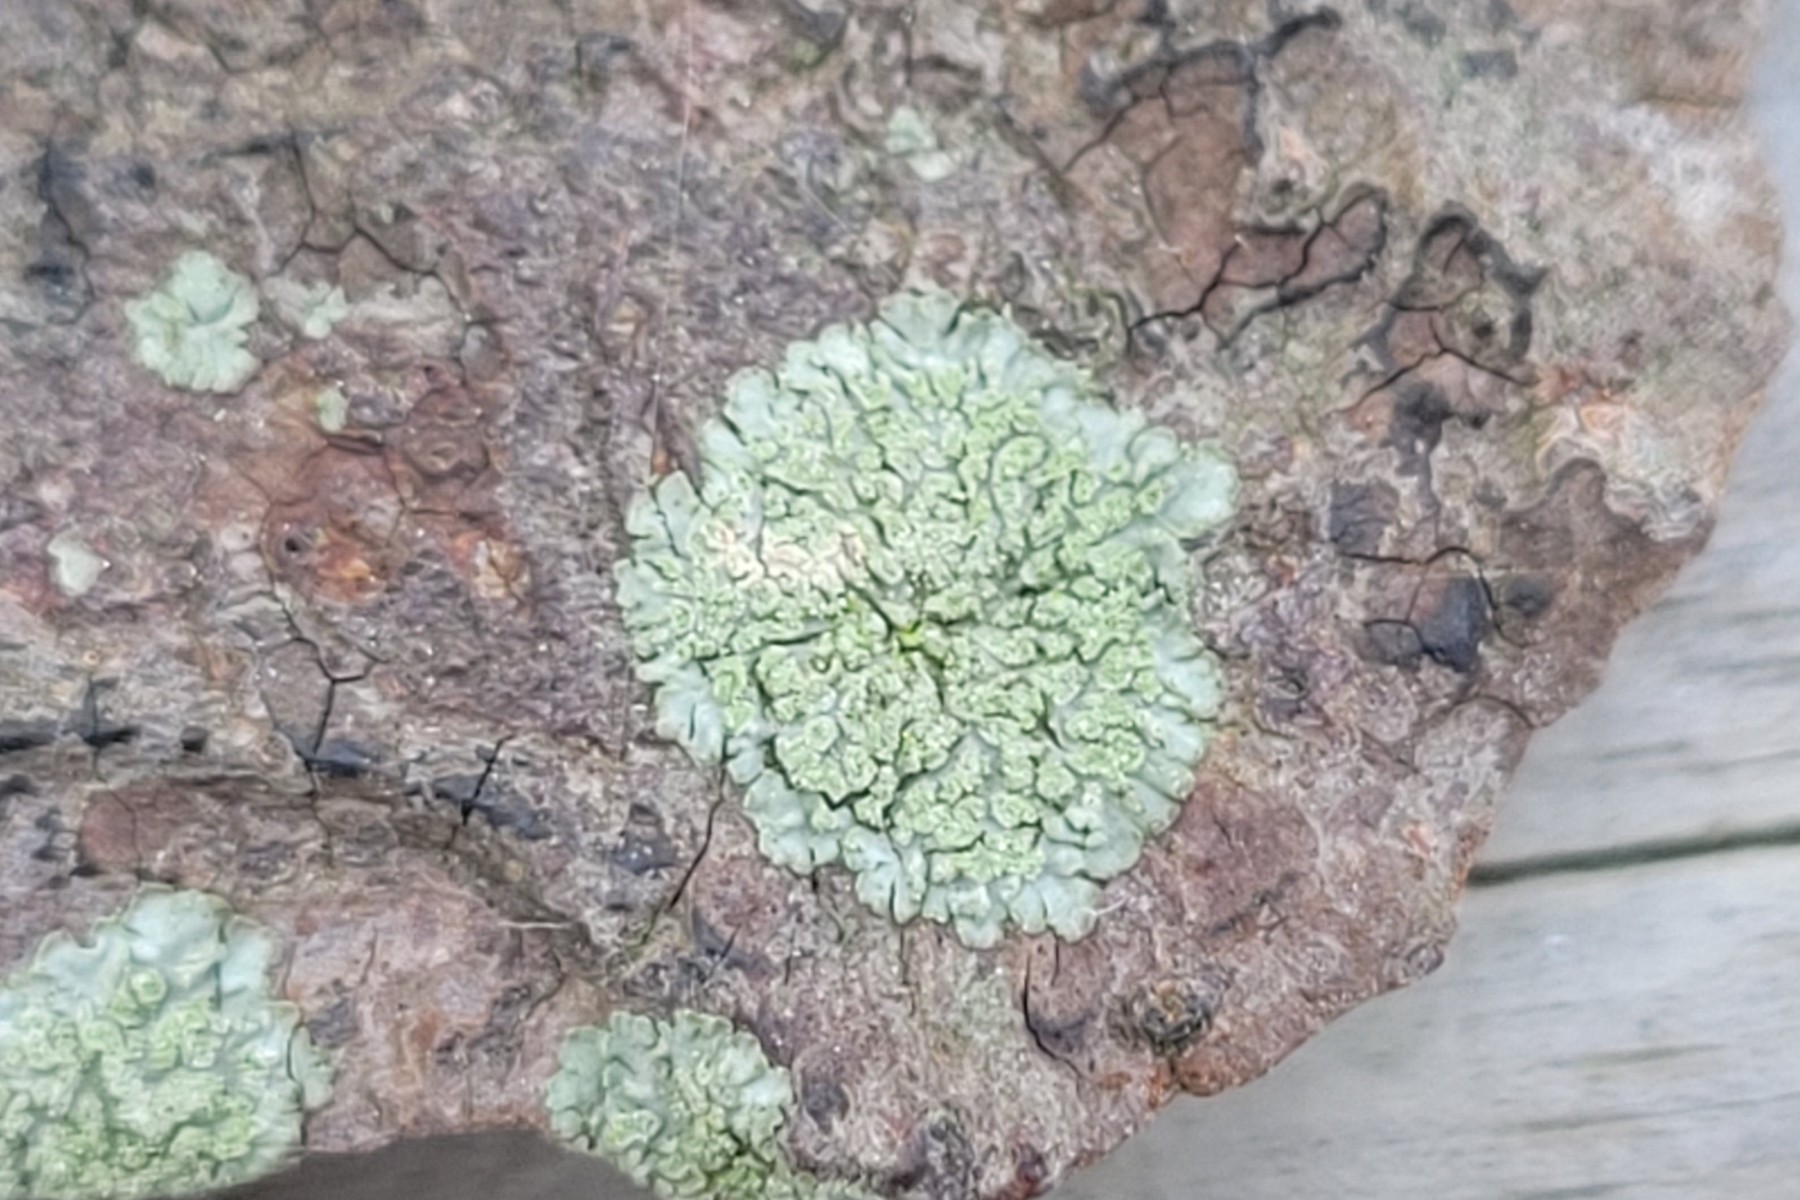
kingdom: Fungi
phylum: Ascomycota
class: Lecanoromycetes
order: Caliciales
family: Physciaceae
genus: Hyperphyscia
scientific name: Hyperphyscia adglutinata
